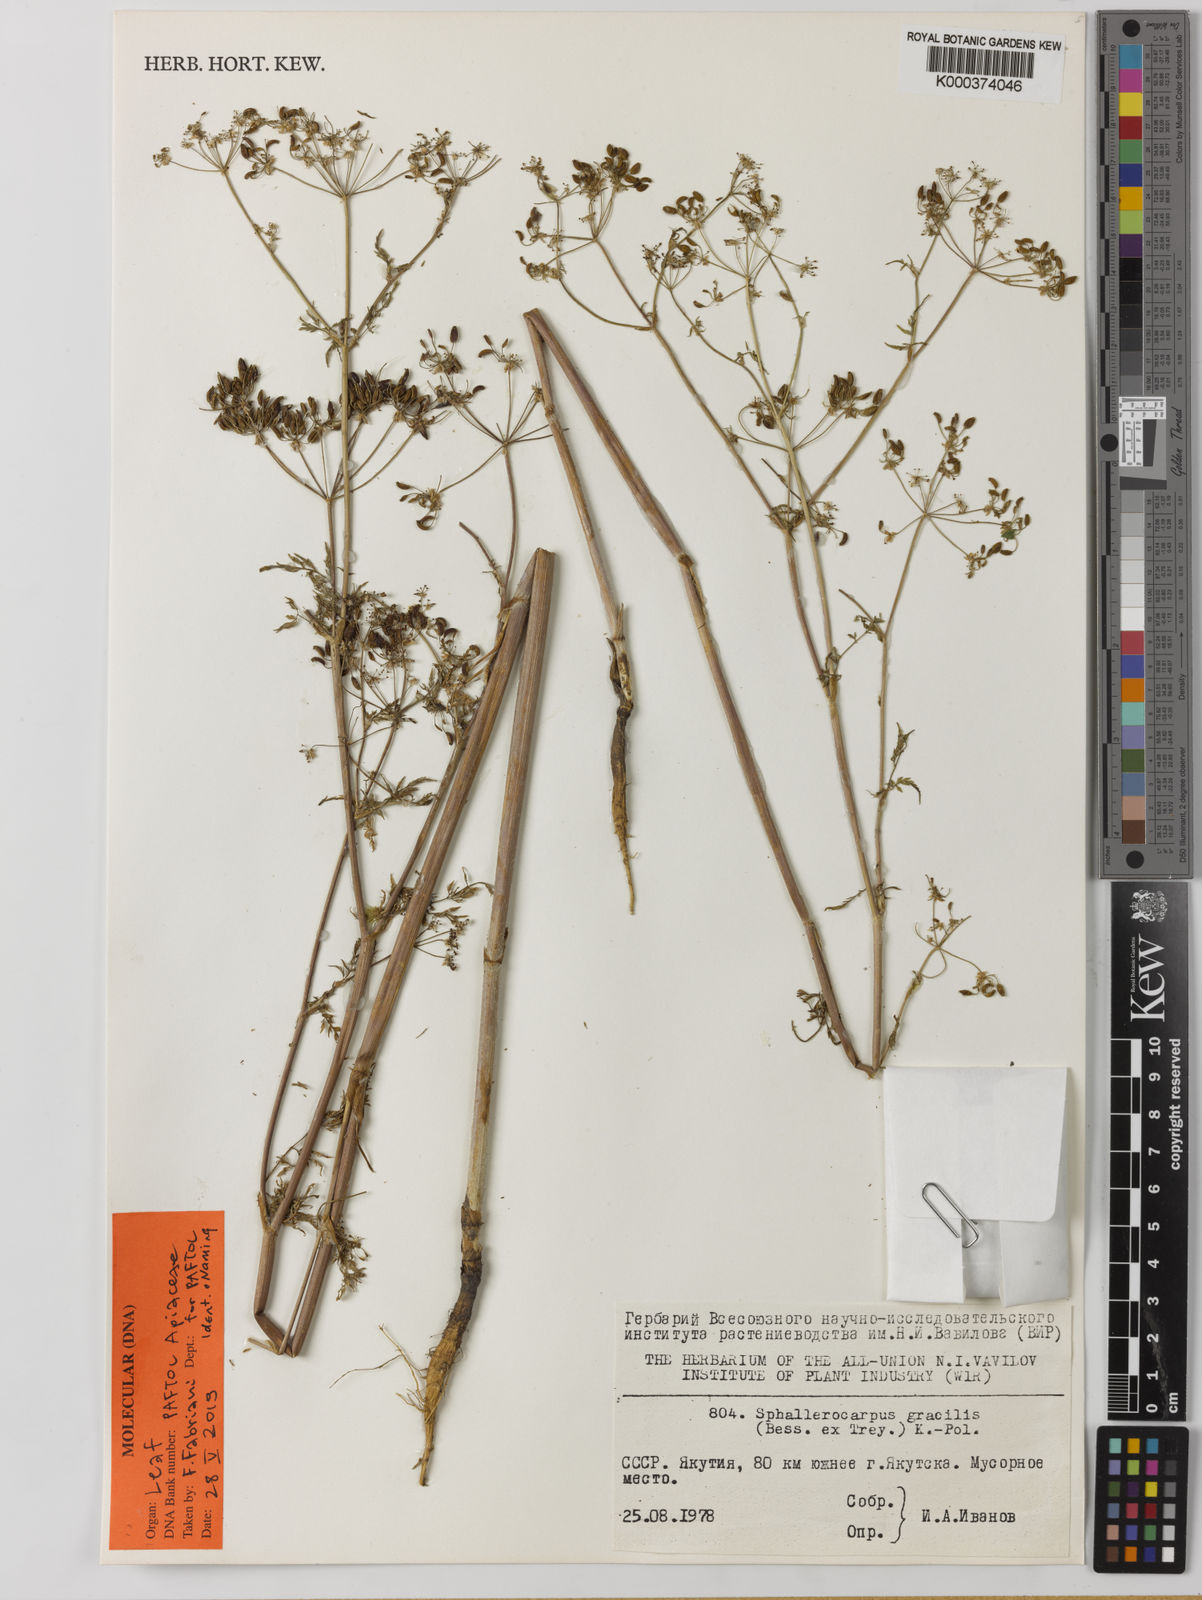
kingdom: Plantae
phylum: Tracheophyta
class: Magnoliopsida
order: Apiales
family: Apiaceae
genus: Sphallerocarpus
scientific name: Sphallerocarpus gracilis
